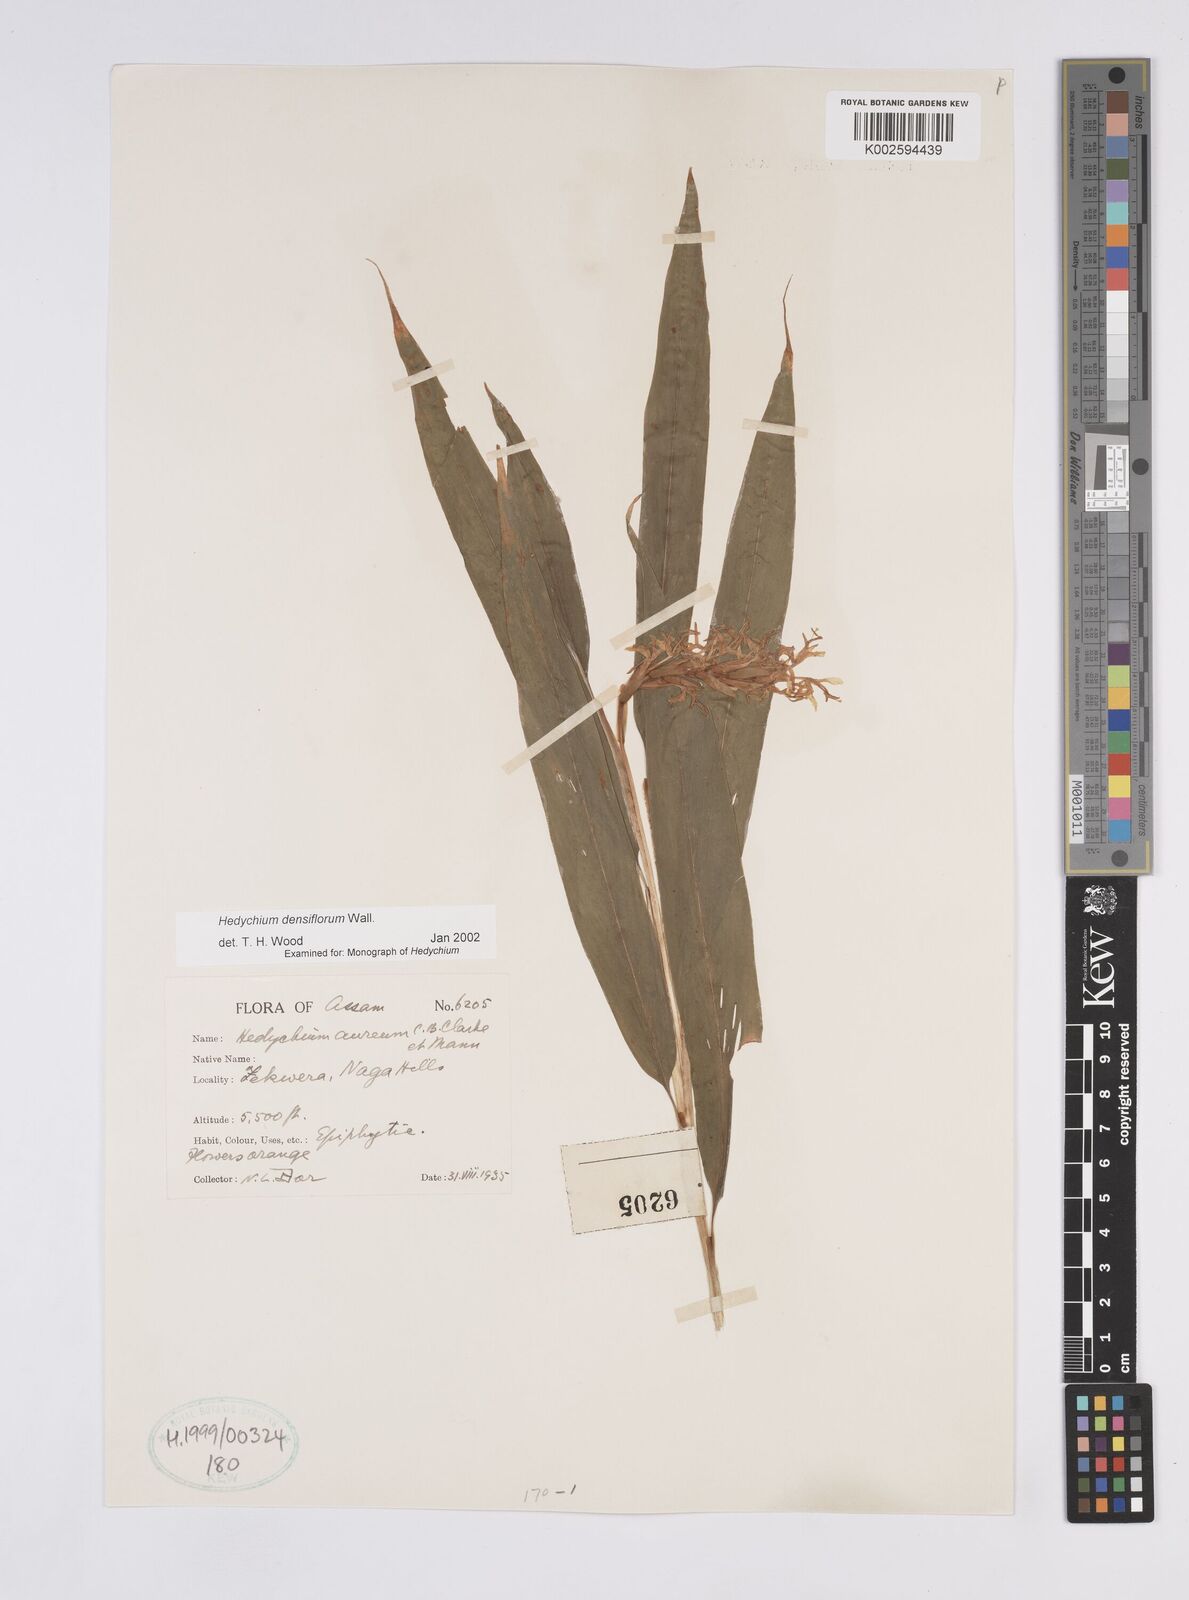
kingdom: Plantae
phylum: Tracheophyta
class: Liliopsida
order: Zingiberales
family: Zingiberaceae
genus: Hedychium
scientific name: Hedychium densiflorum
